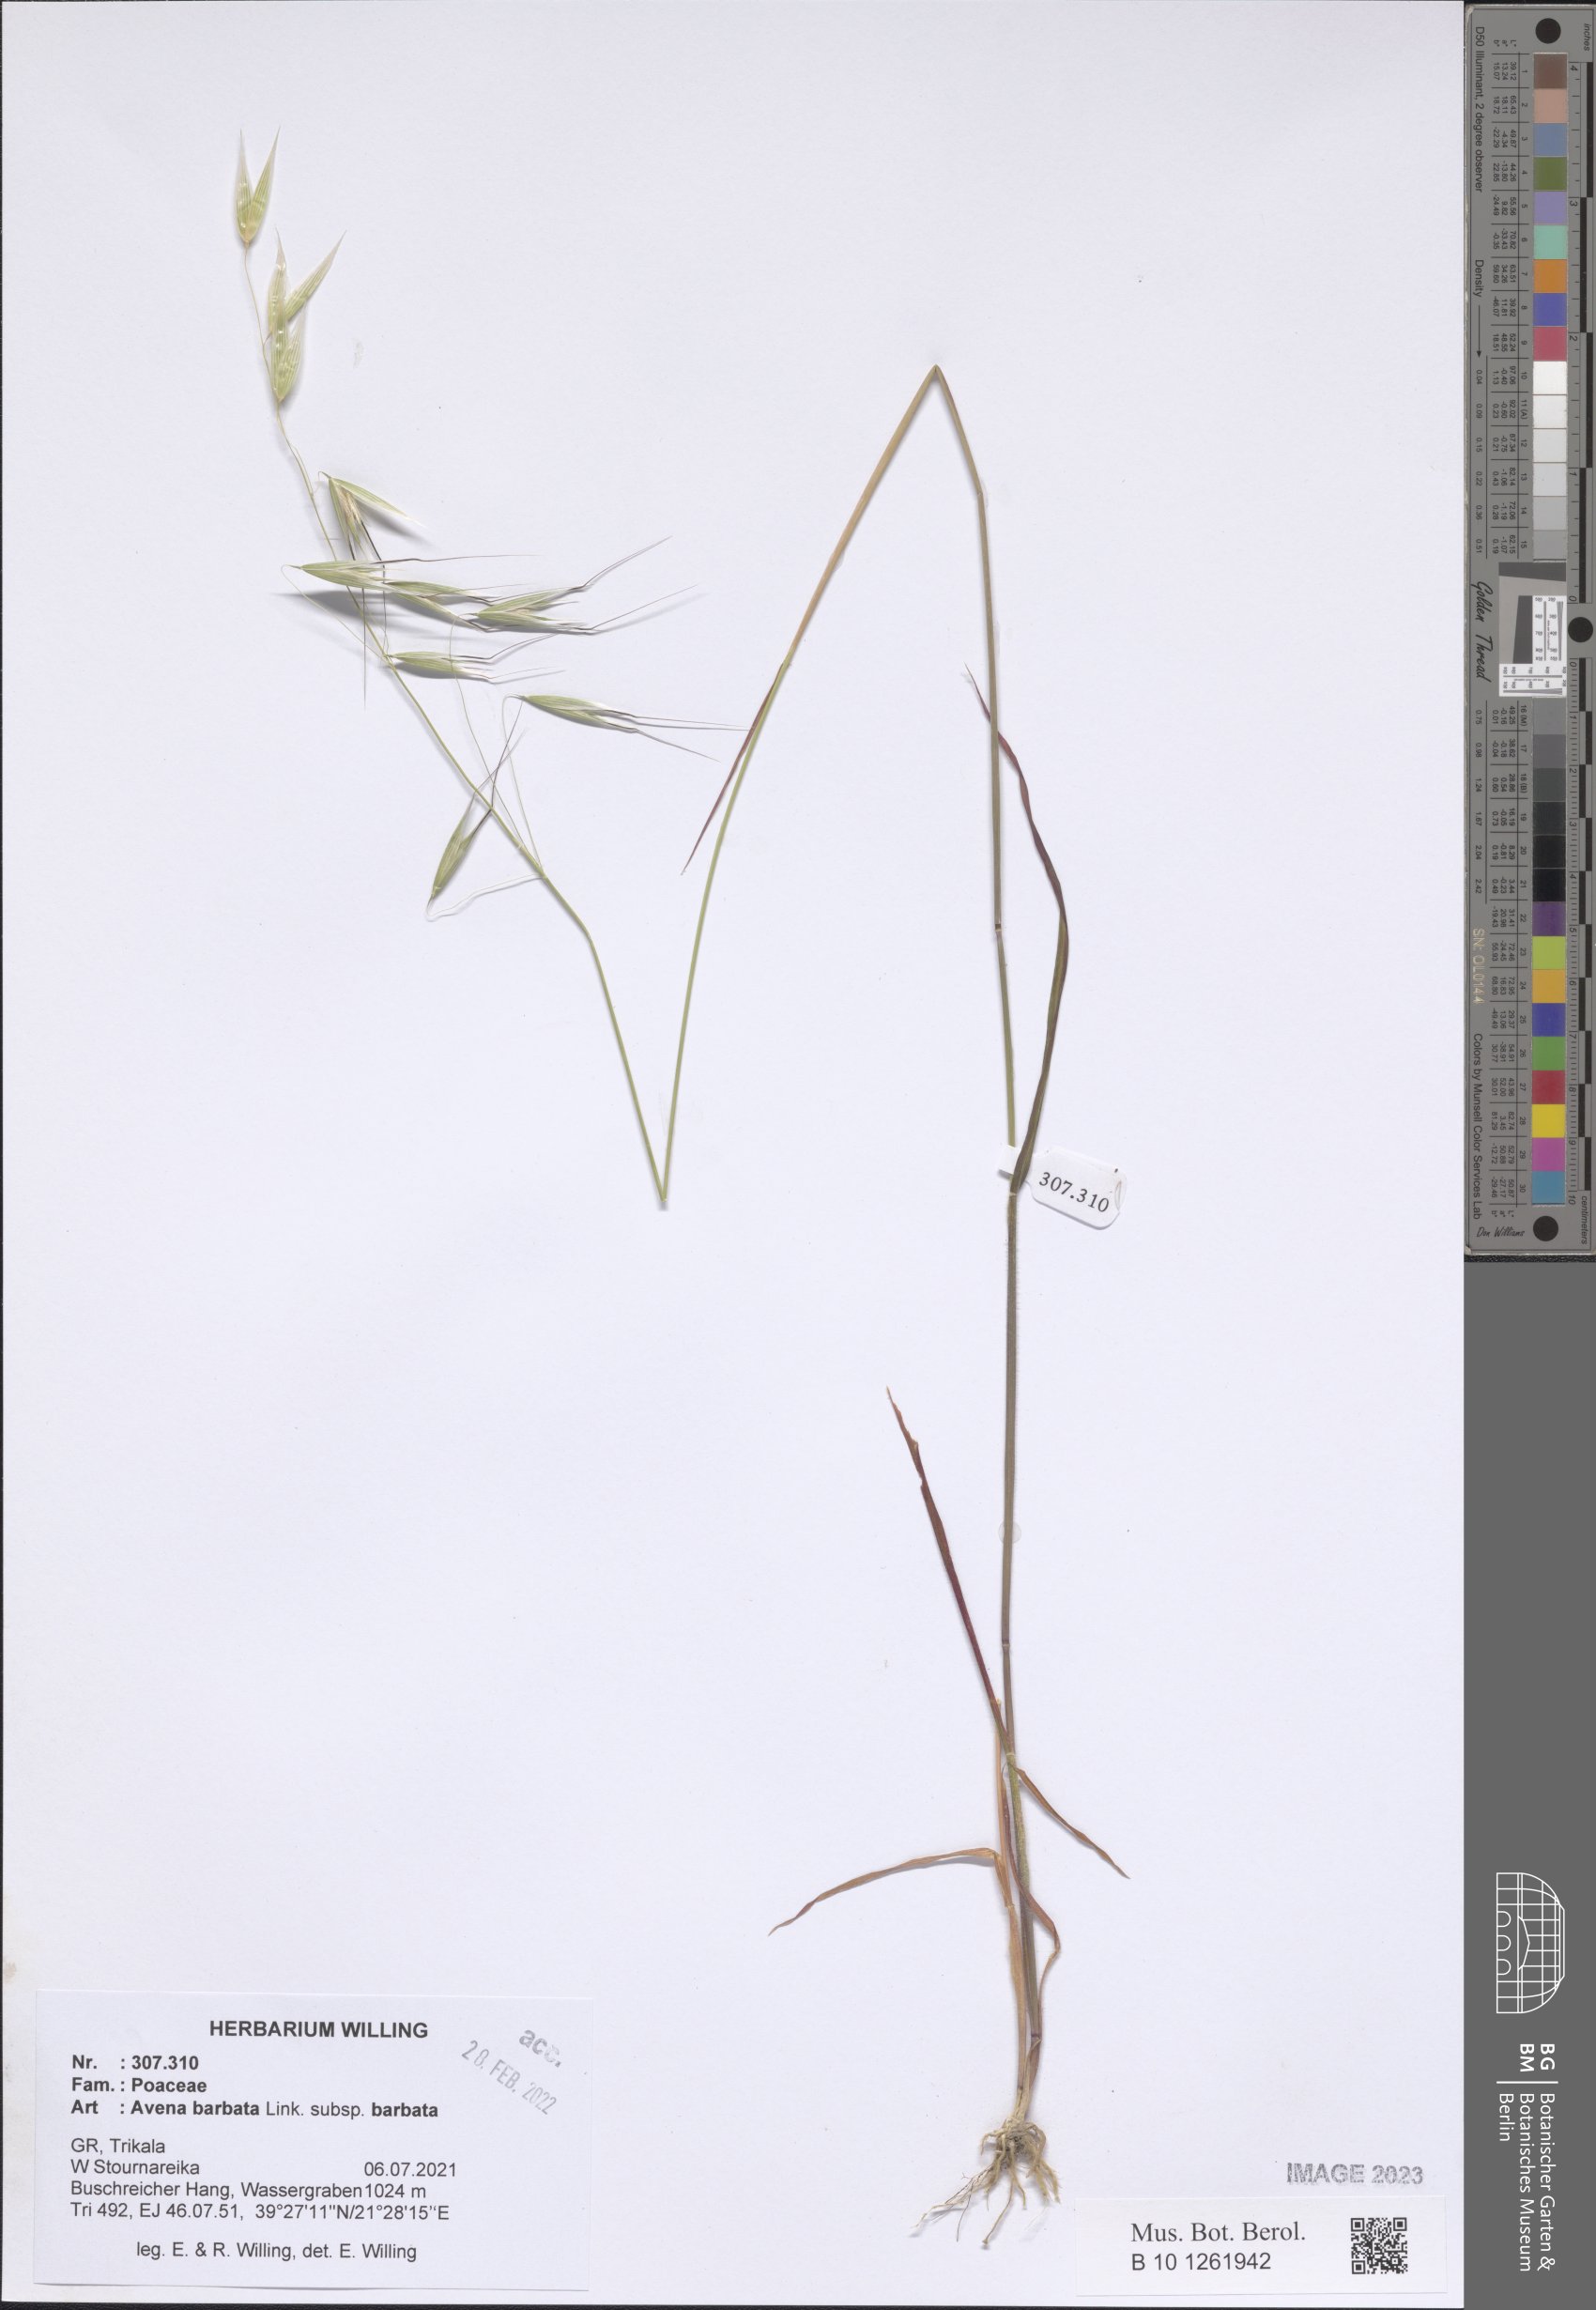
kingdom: Plantae
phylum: Tracheophyta
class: Liliopsida
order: Poales
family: Poaceae
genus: Avena
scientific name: Avena barbata
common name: Slender oat
